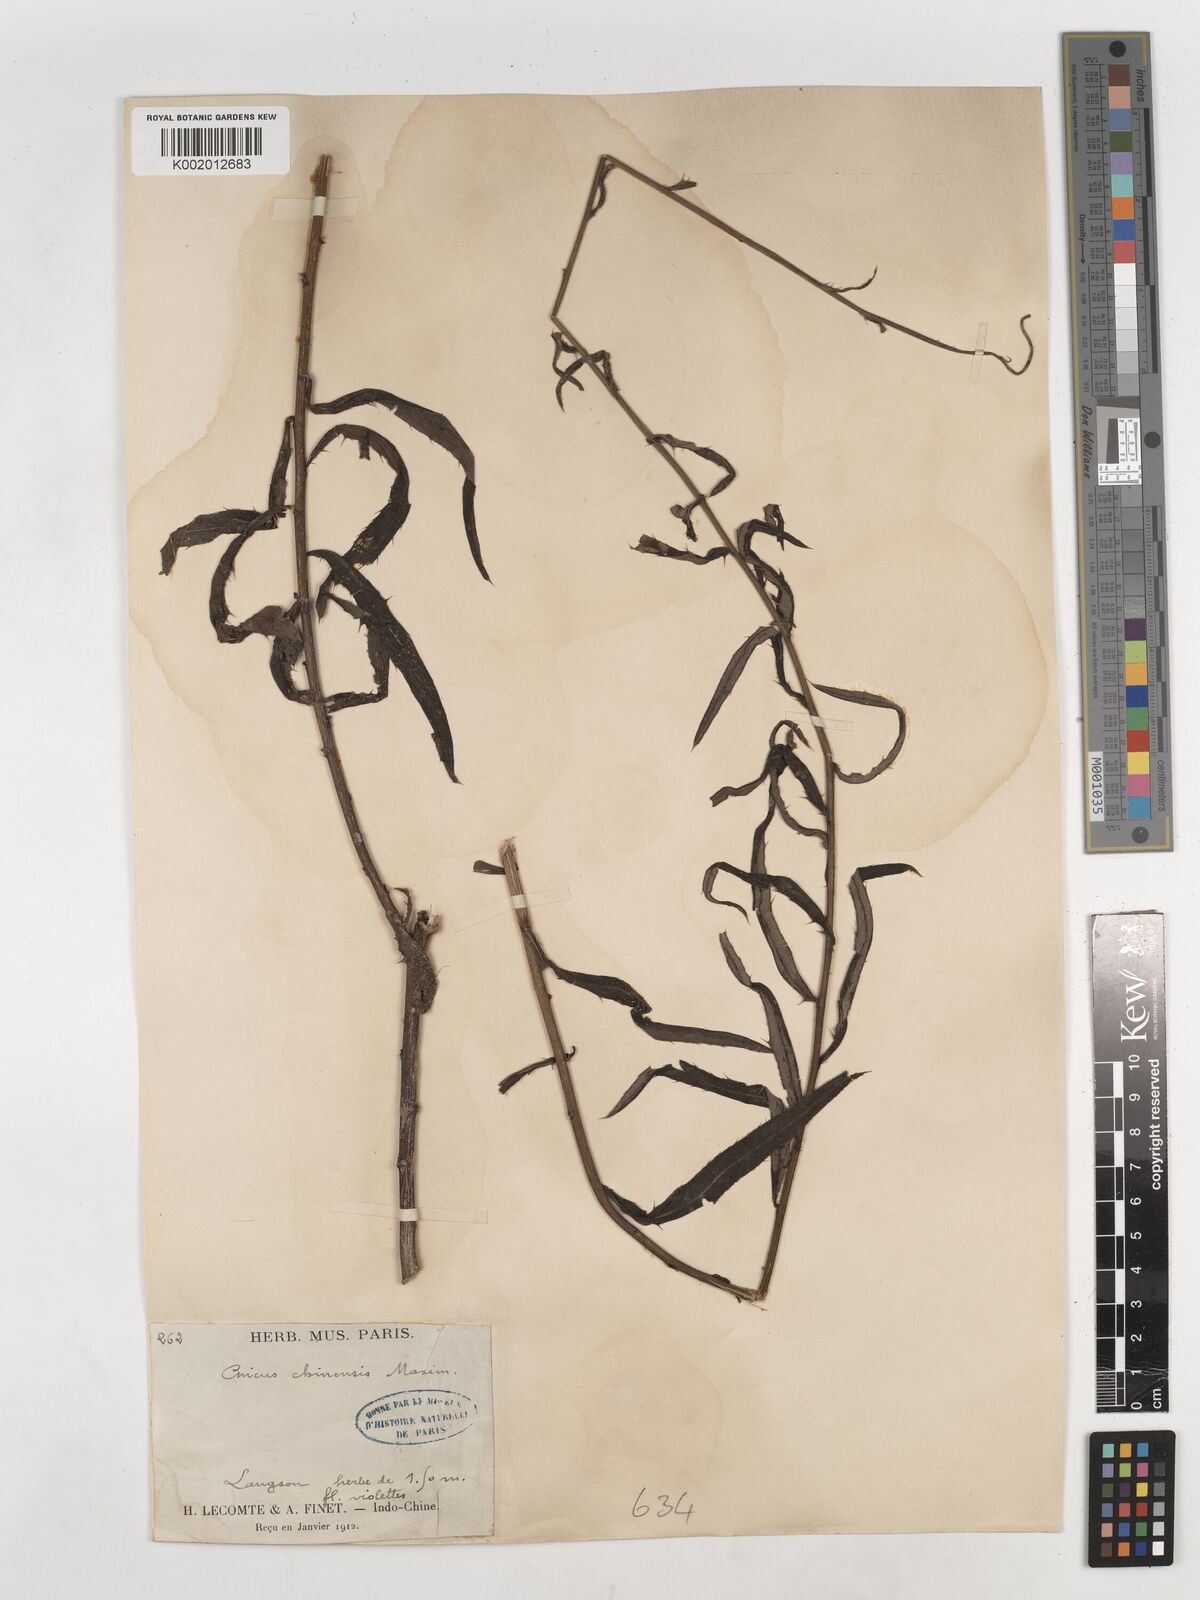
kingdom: Plantae
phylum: Tracheophyta
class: Magnoliopsida
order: Asterales
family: Asteraceae
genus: Cirsium
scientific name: Cirsium chinense
